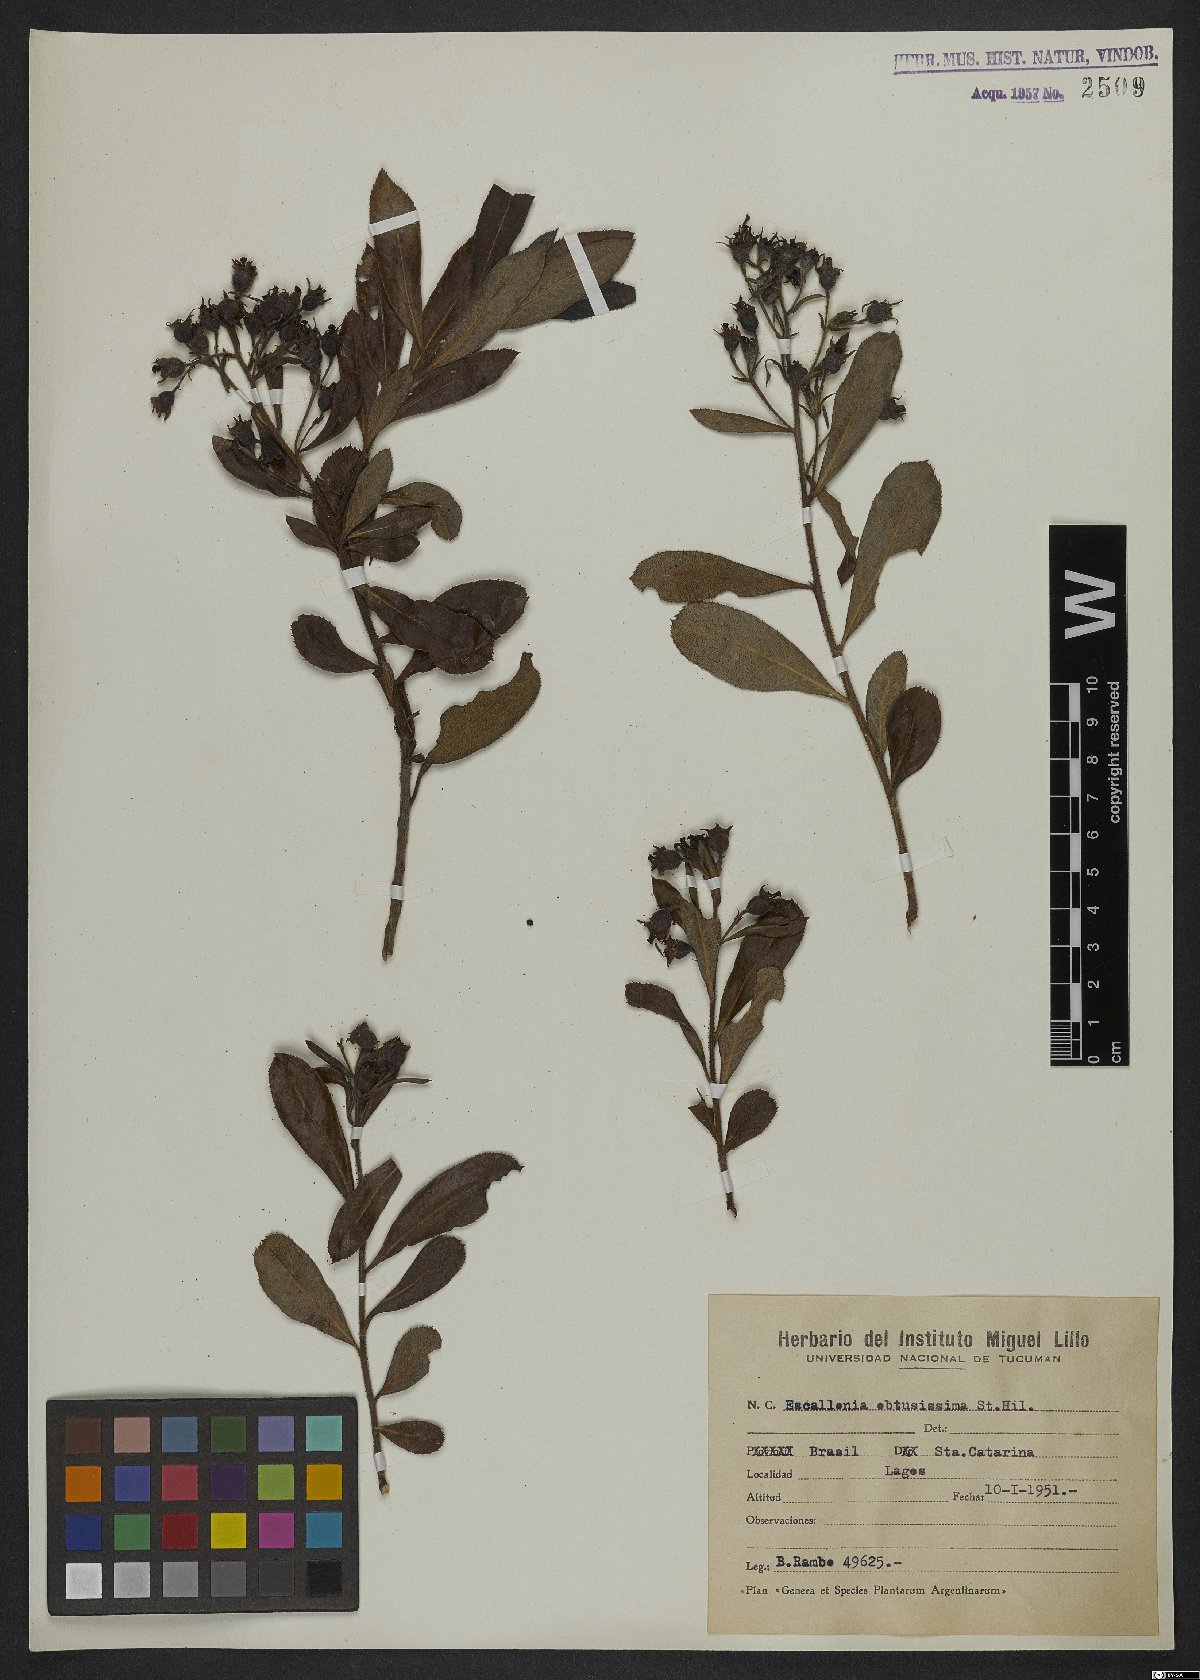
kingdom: Plantae
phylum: Tracheophyta
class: Magnoliopsida
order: Escalloniales
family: Escalloniaceae
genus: Escallonia
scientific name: Escallonia obtusissima
